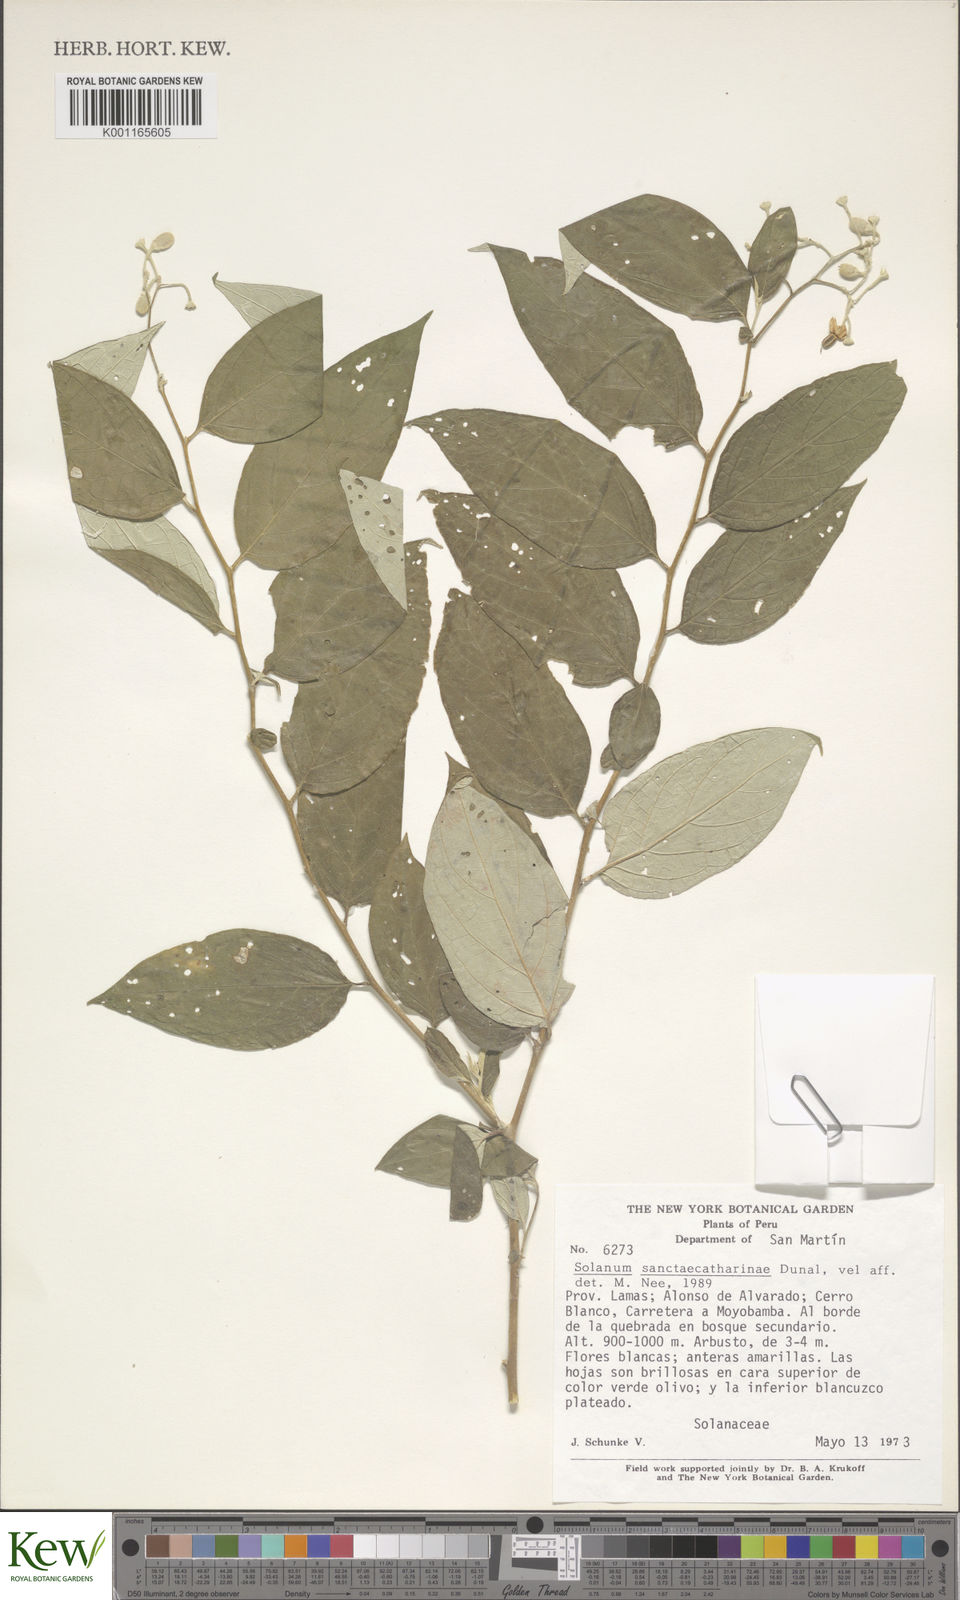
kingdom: Plantae
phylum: Tracheophyta
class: Magnoliopsida
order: Solanales
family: Solanaceae
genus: Solanum
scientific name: Solanum sanctae-catharinae
